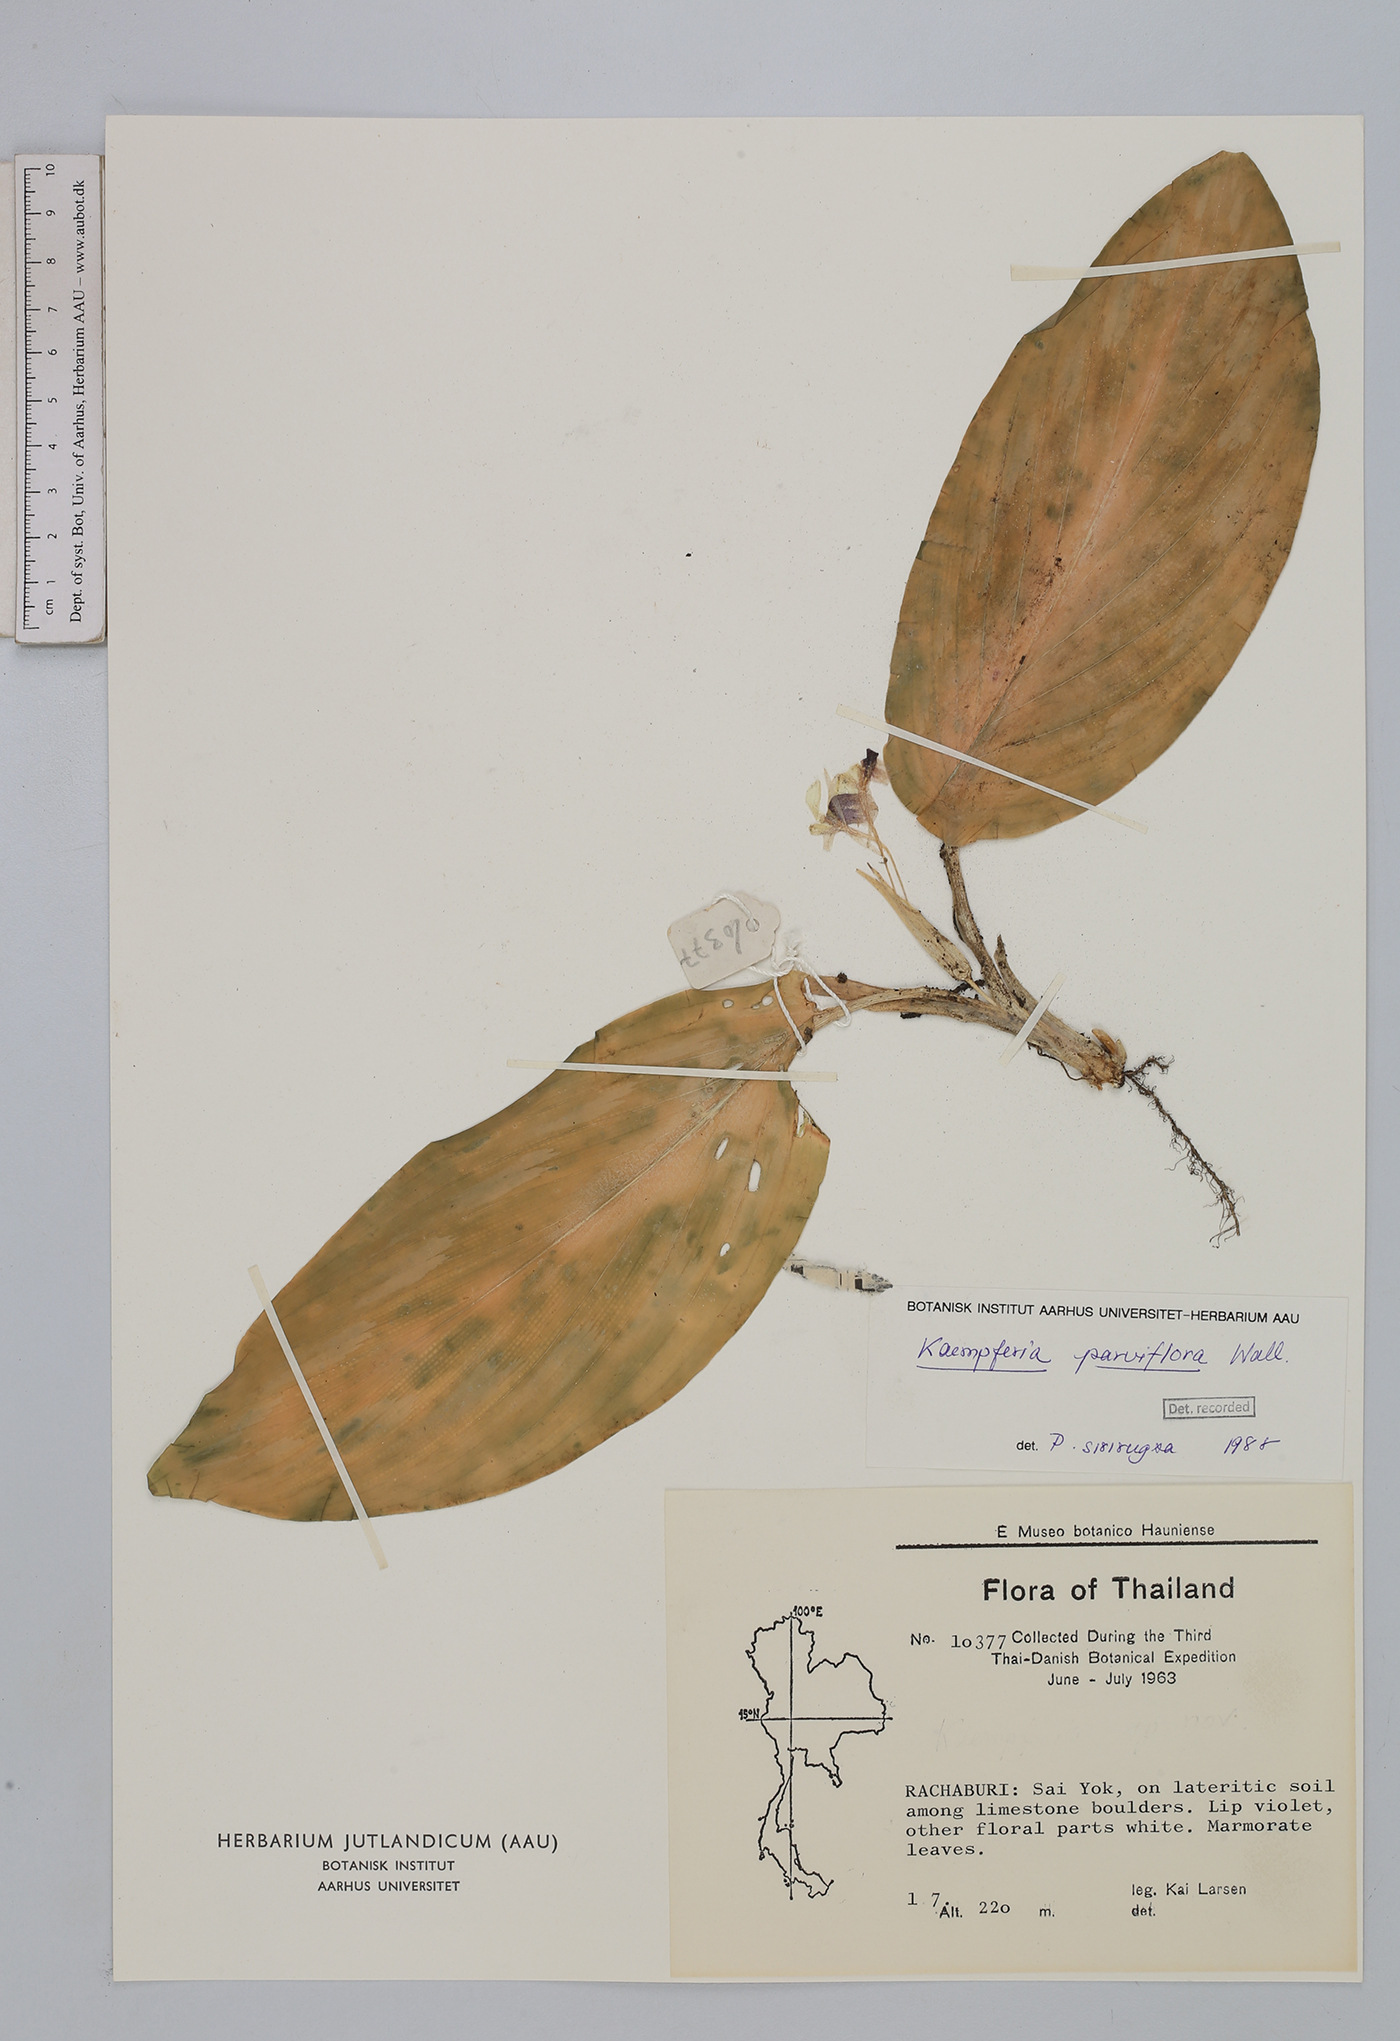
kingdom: Plantae
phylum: Tracheophyta
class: Liliopsida
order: Zingiberales
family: Zingiberaceae
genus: Kaempferia
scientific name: Kaempferia parviflora
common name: Black galingale
